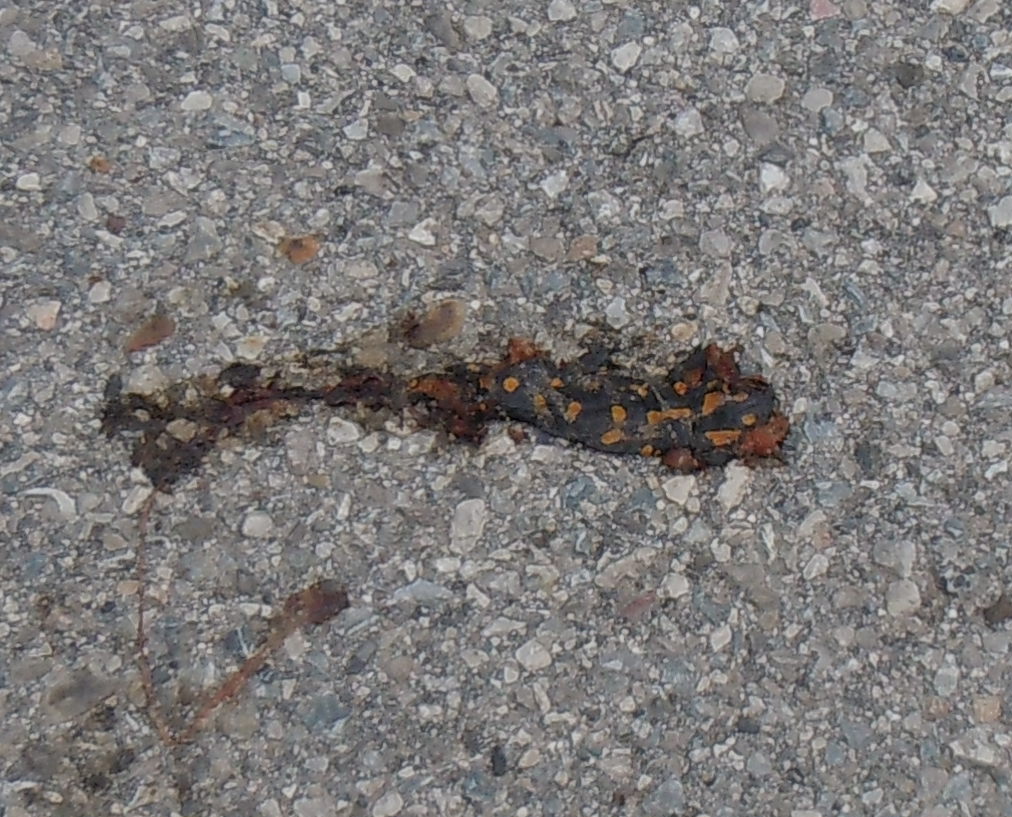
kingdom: Animalia
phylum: Chordata
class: Amphibia
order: Caudata
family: Salamandridae
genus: Salamandra
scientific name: Salamandra salamandra
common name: Fire salamander
